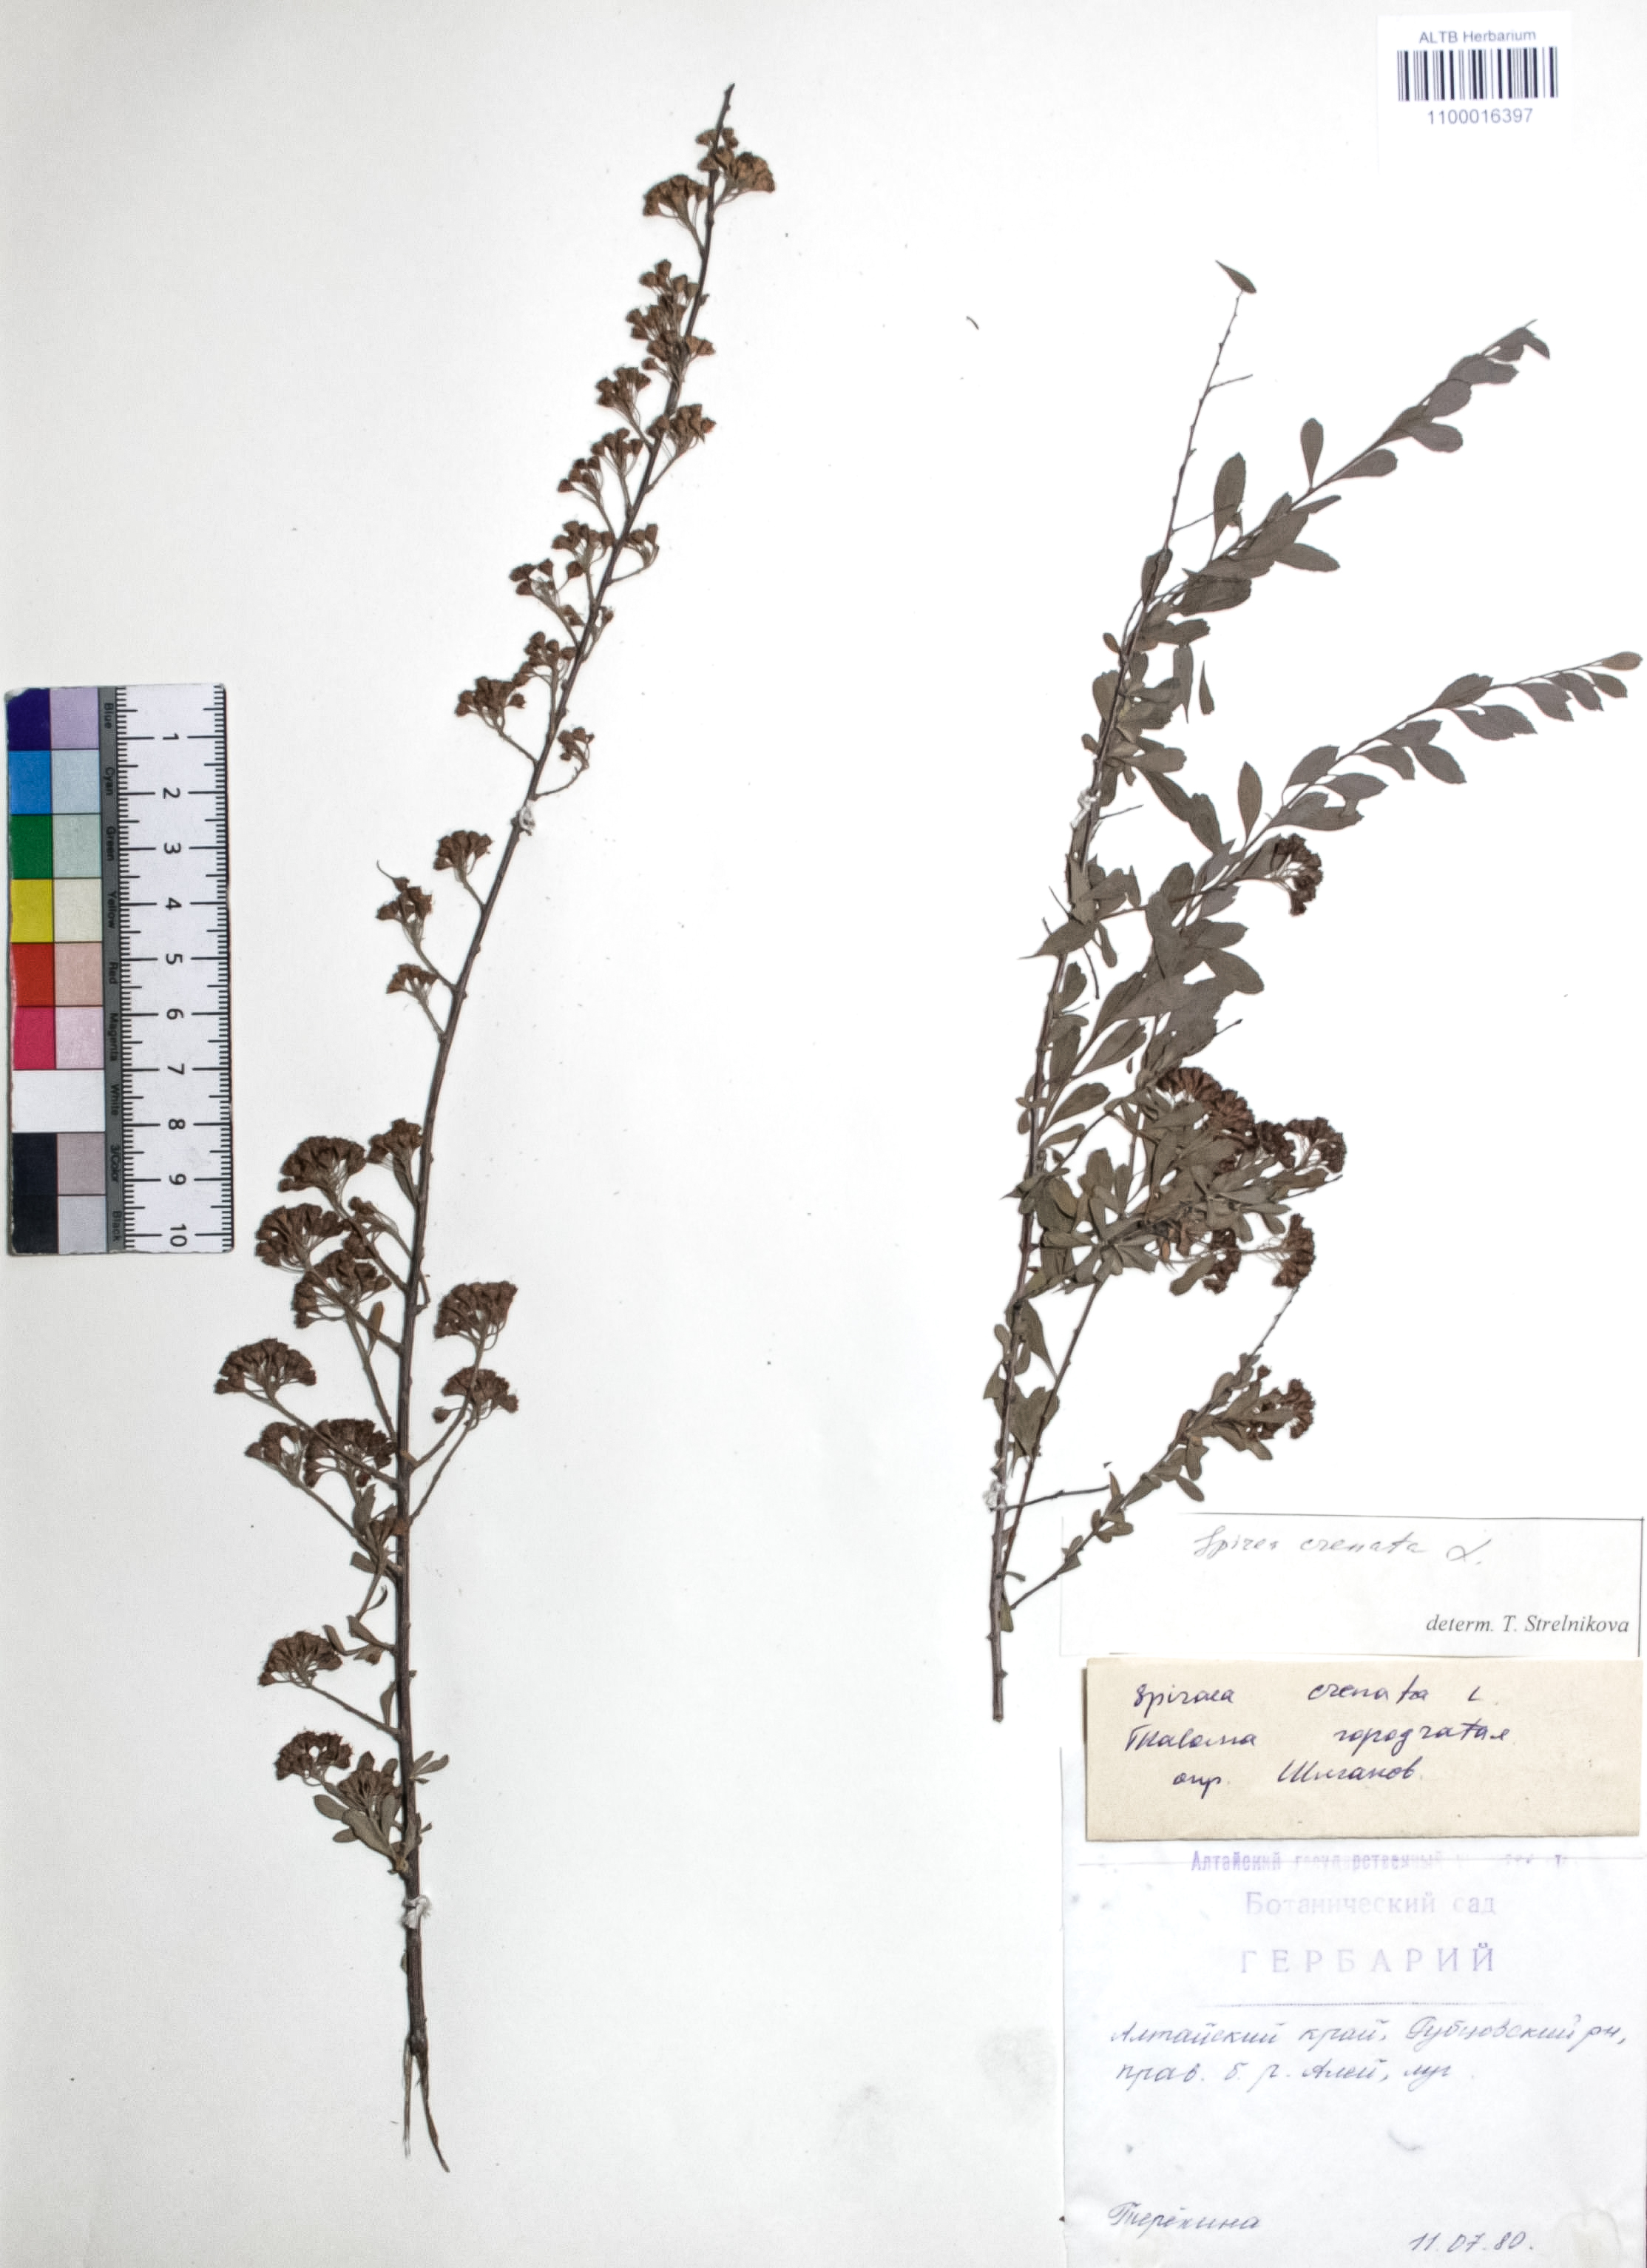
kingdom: Plantae
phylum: Tracheophyta
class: Magnoliopsida
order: Rosales
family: Rosaceae
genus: Spiraea
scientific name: Spiraea crenata
